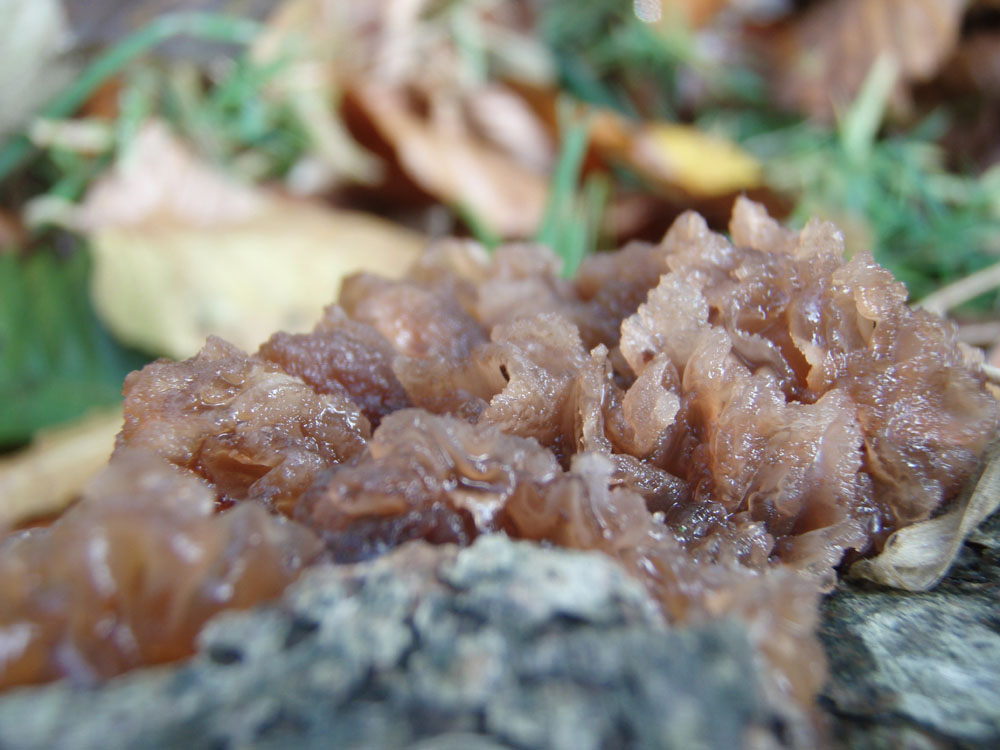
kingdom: Fungi
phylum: Basidiomycota
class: Agaricomycetes
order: Auriculariales
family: Auriculariaceae
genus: Exidia
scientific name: Exidia nigricans
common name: almindelig bævretop
